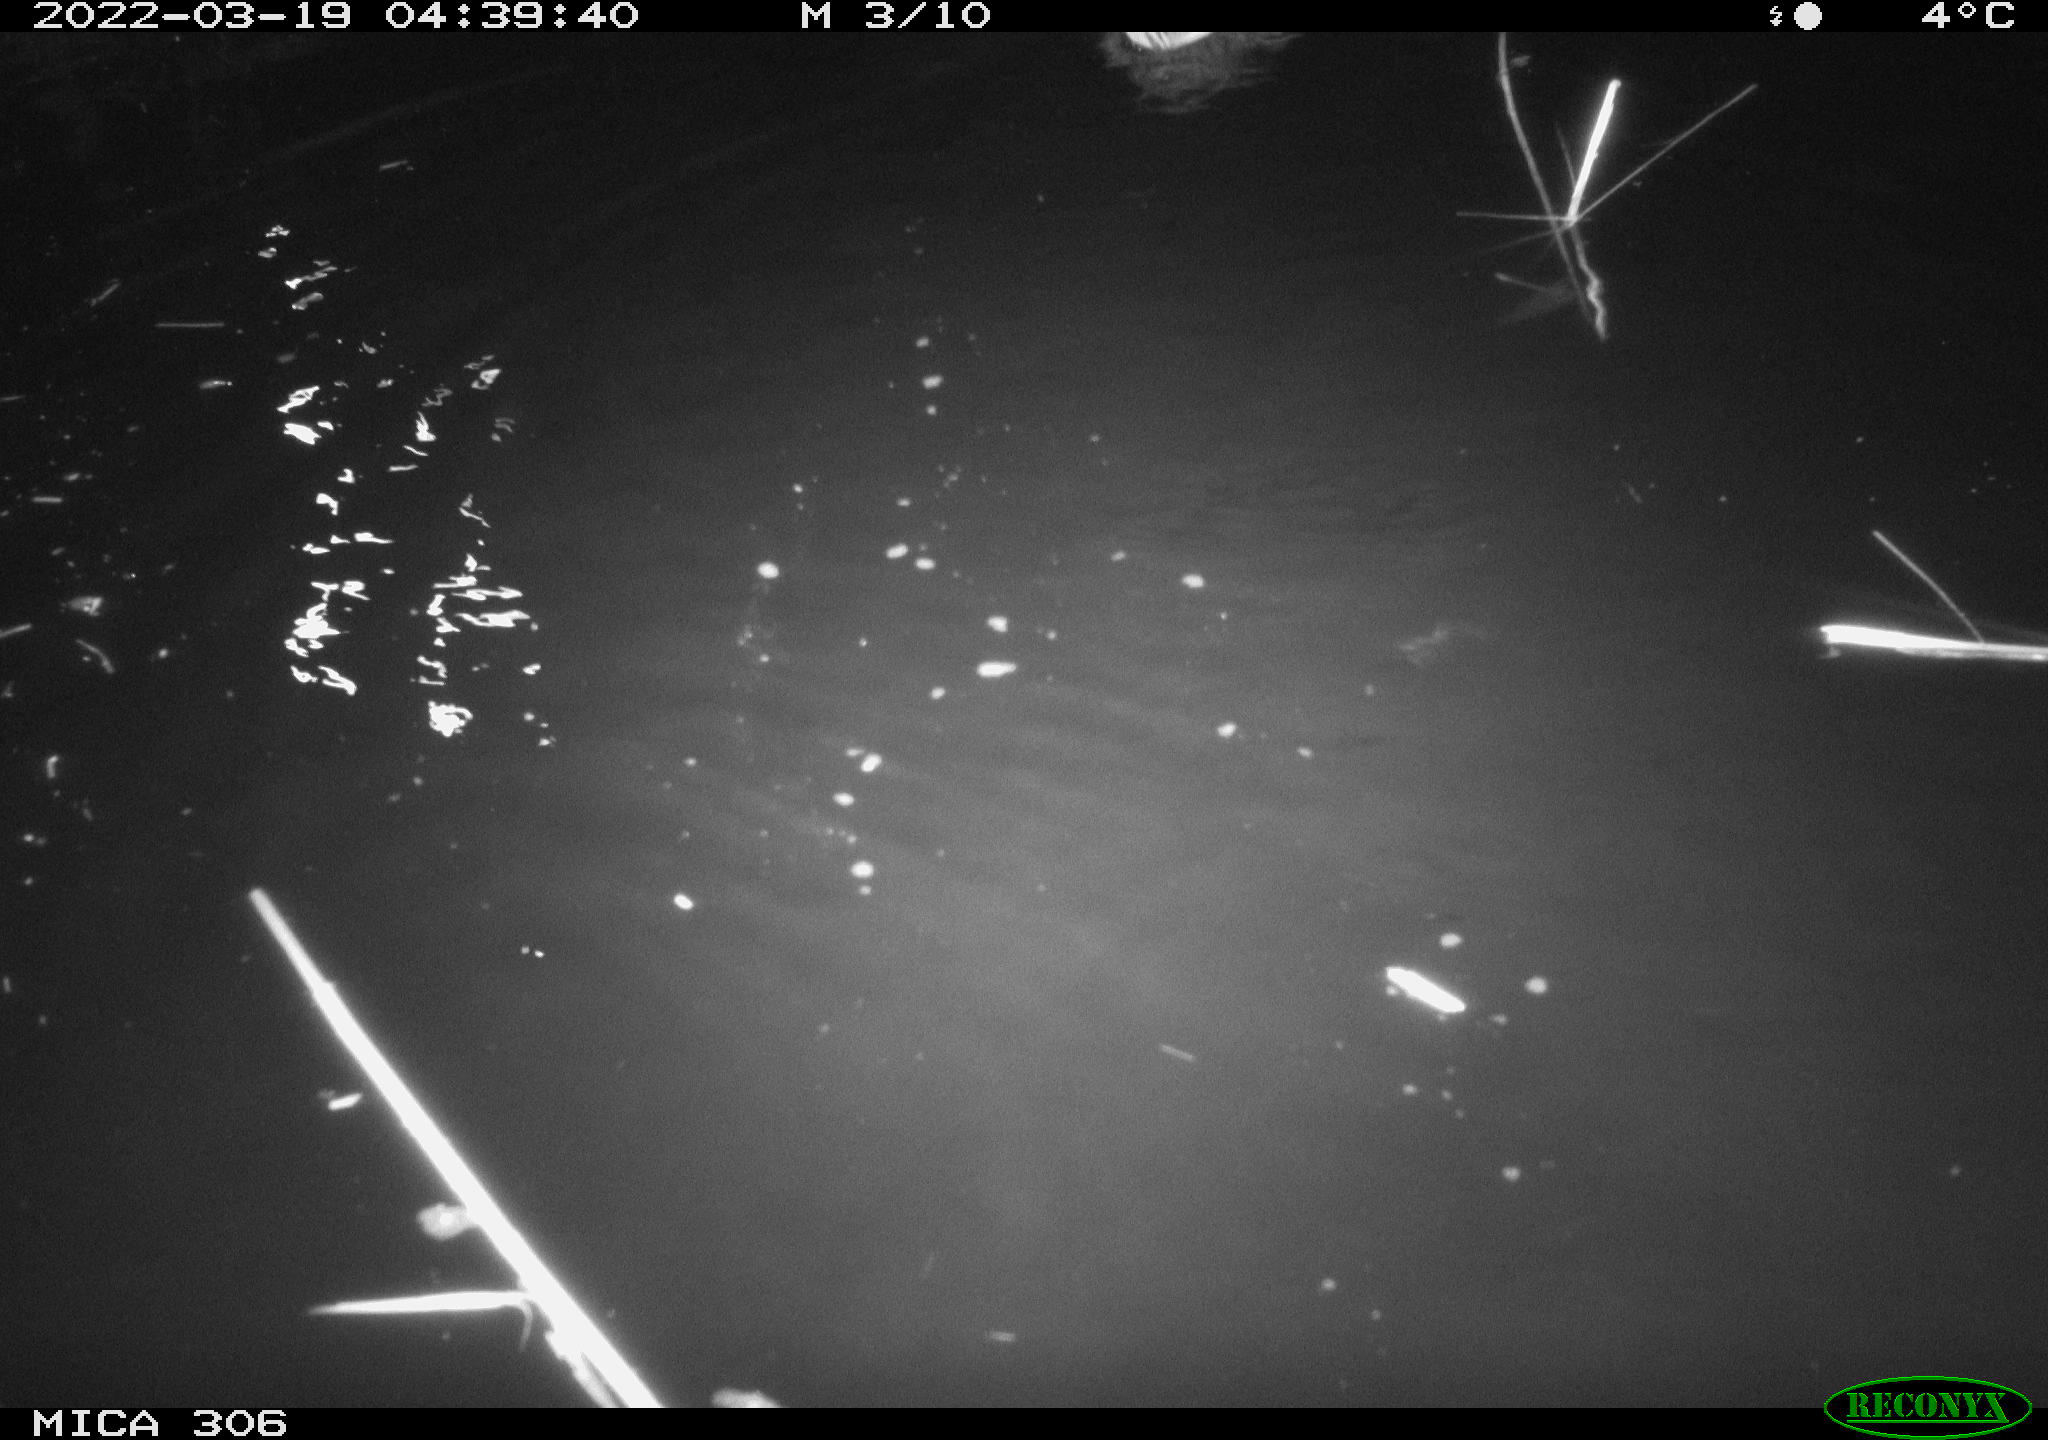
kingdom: Animalia
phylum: Chordata
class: Aves
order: Anseriformes
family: Anatidae
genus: Anas
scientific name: Anas platyrhynchos
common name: Mallard
